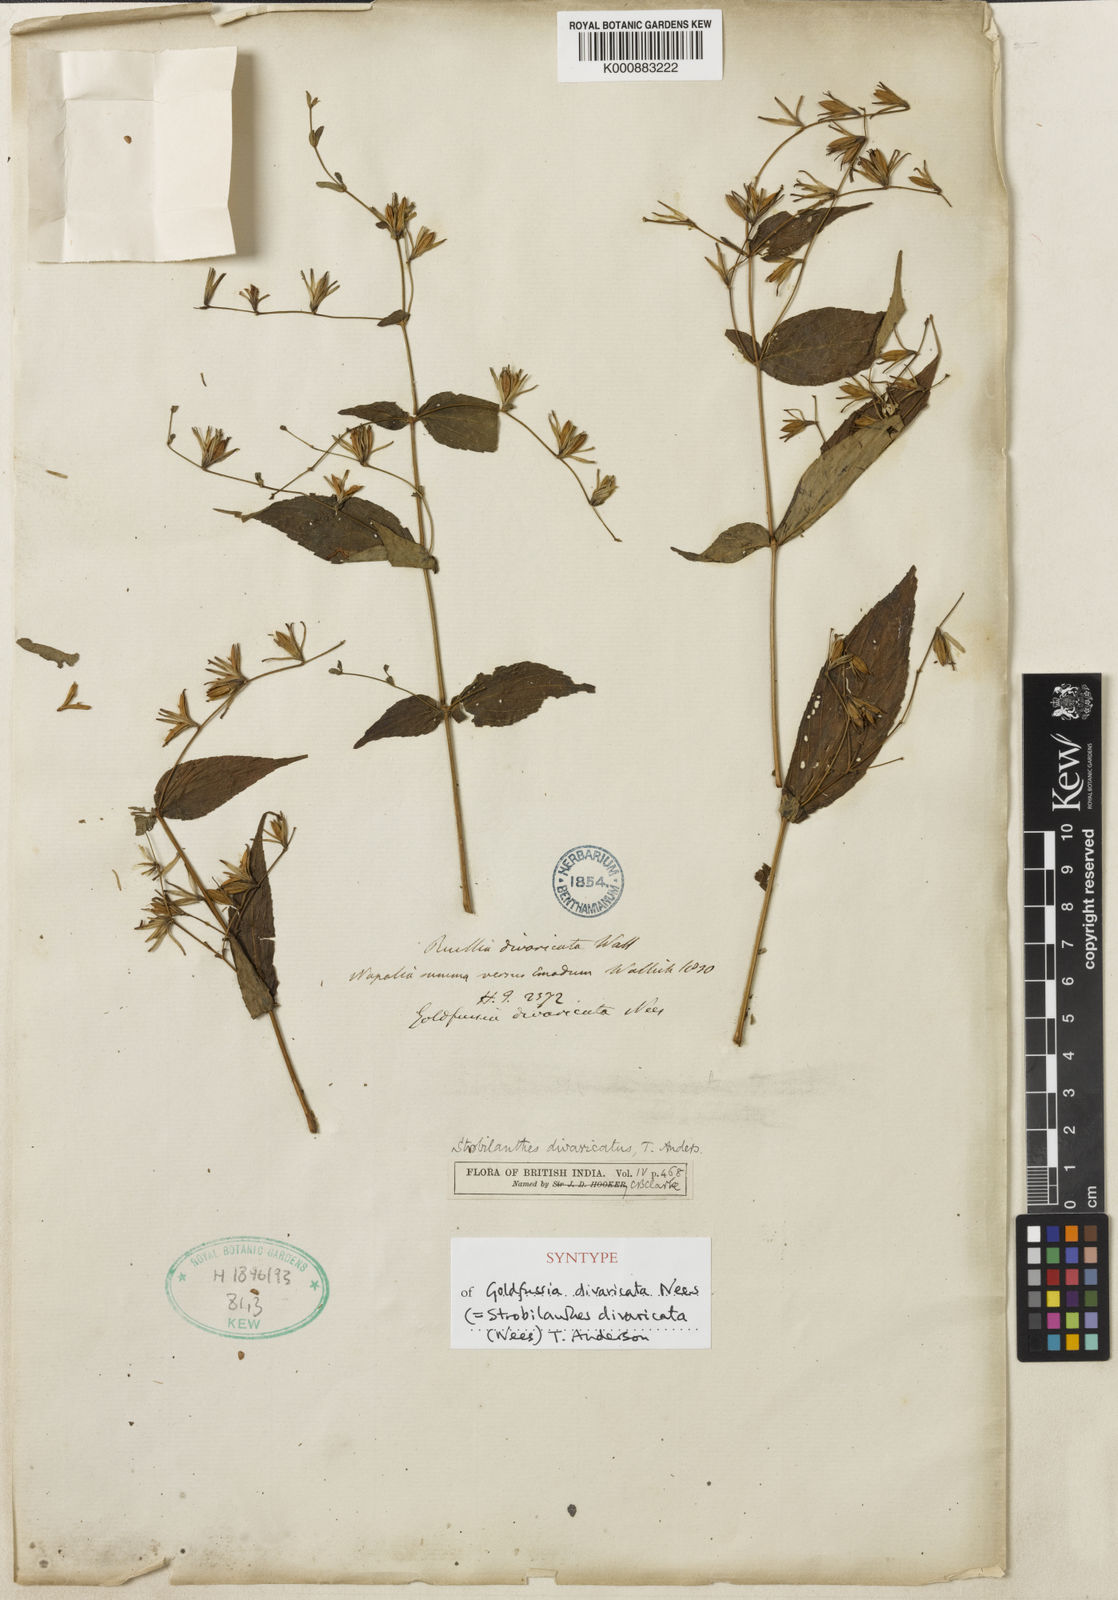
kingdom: Plantae
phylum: Tracheophyta
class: Magnoliopsida
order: Lamiales
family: Acanthaceae
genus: Strobilanthes
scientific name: Strobilanthes divaricata
